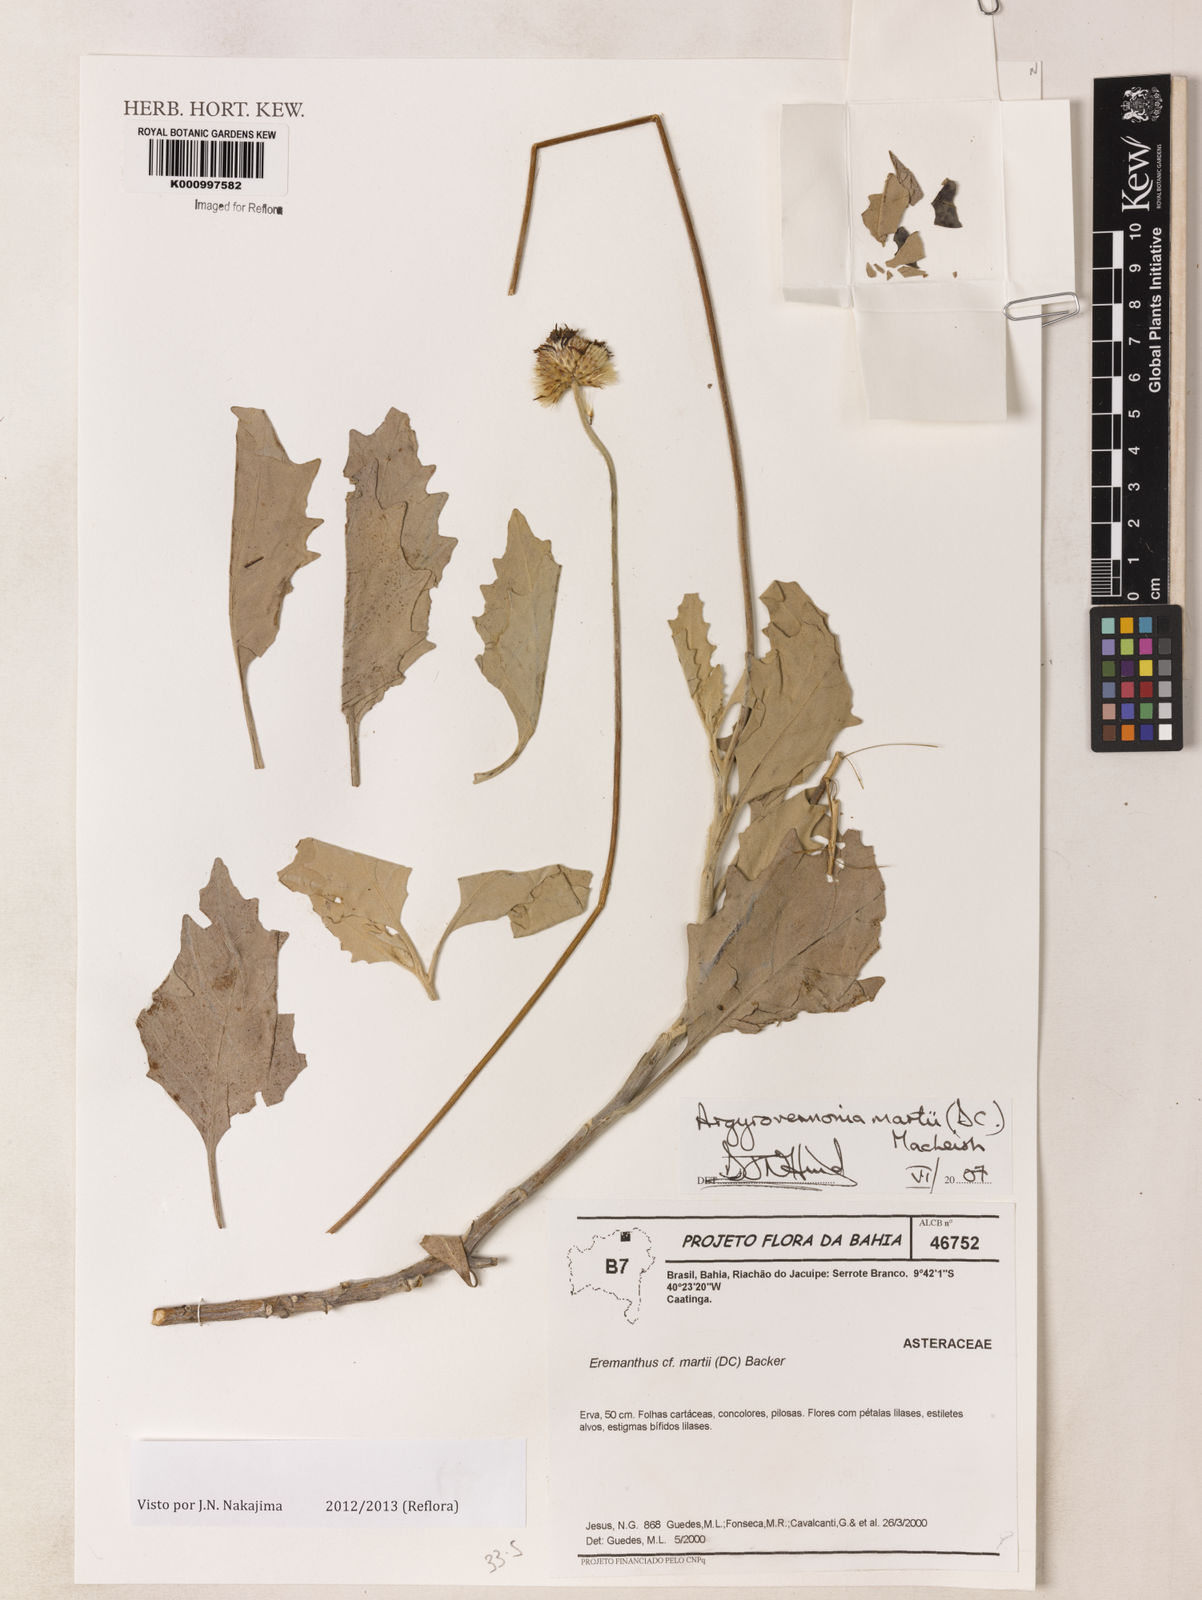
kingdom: Plantae
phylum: Tracheophyta
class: Magnoliopsida
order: Asterales
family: Asteraceae
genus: Chresta
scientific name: Chresta martii
